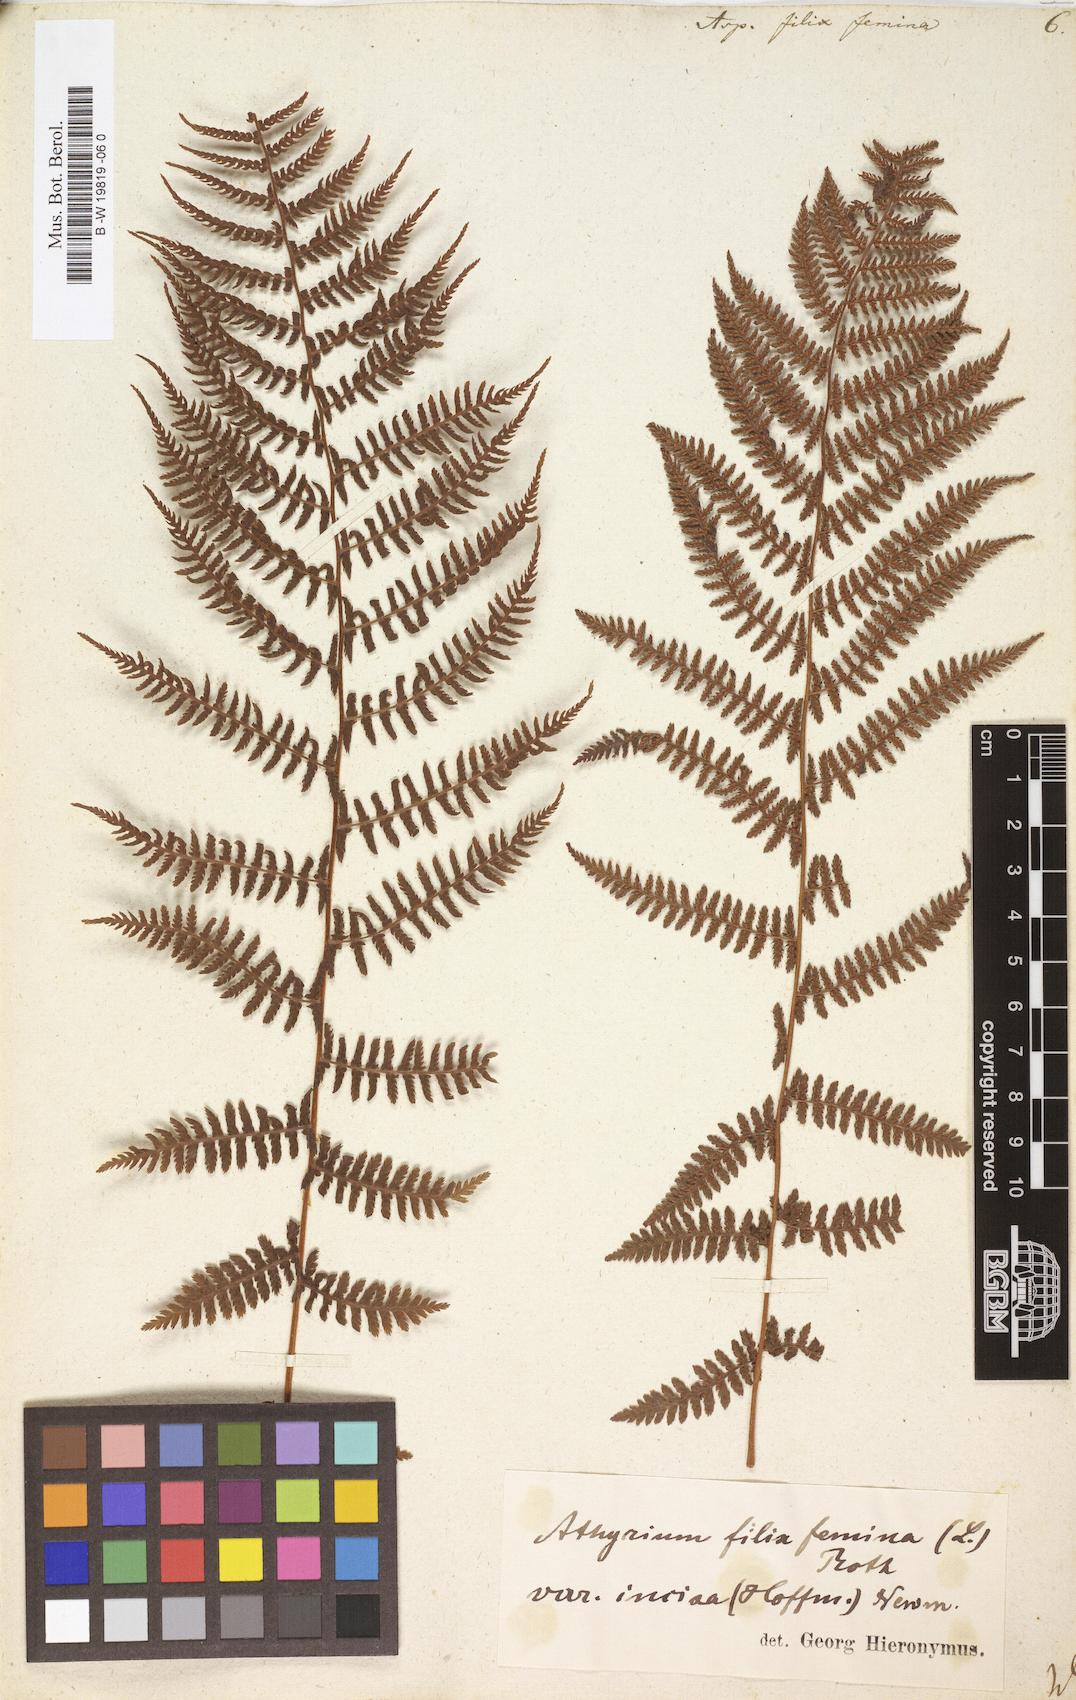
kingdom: Plantae
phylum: Tracheophyta
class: Polypodiopsida
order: Polypodiales
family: Athyriaceae
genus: Athyrium
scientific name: Athyrium filix-femina
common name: Lady fern
